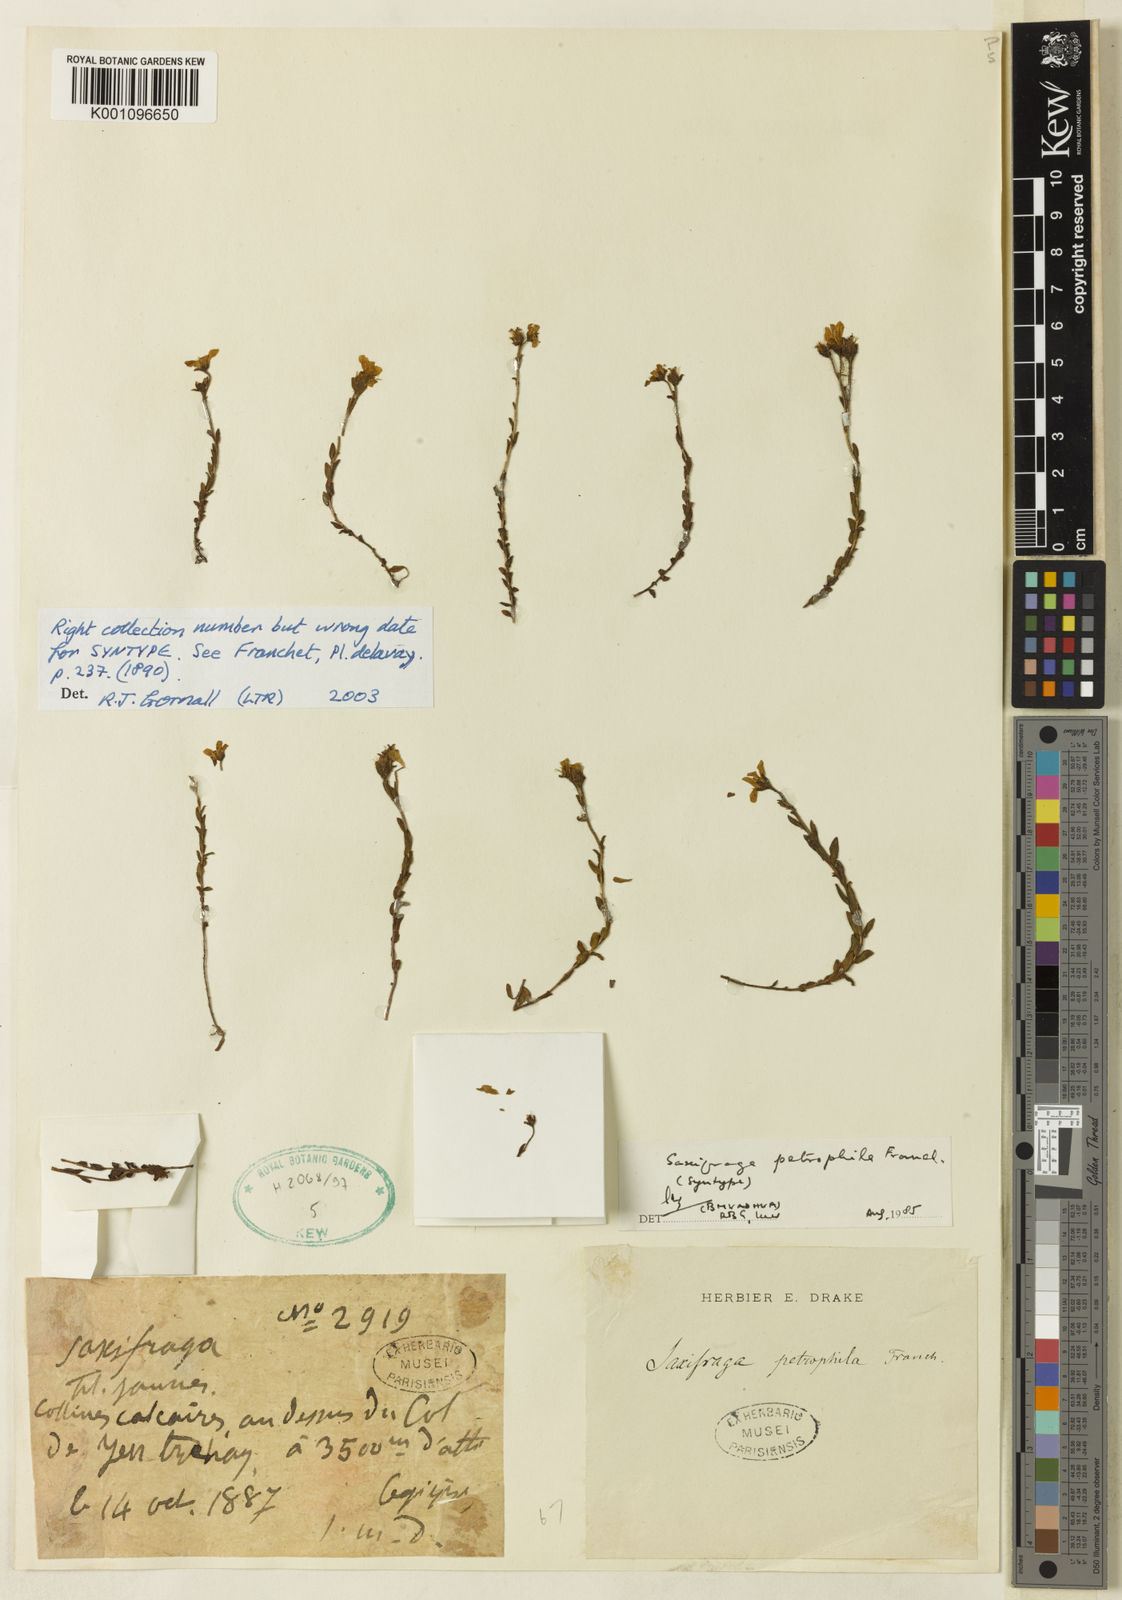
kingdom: Plantae
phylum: Tracheophyta
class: Magnoliopsida
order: Saxifragales
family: Saxifragaceae
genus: Saxifraga
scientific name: Saxifraga peplidifolia
